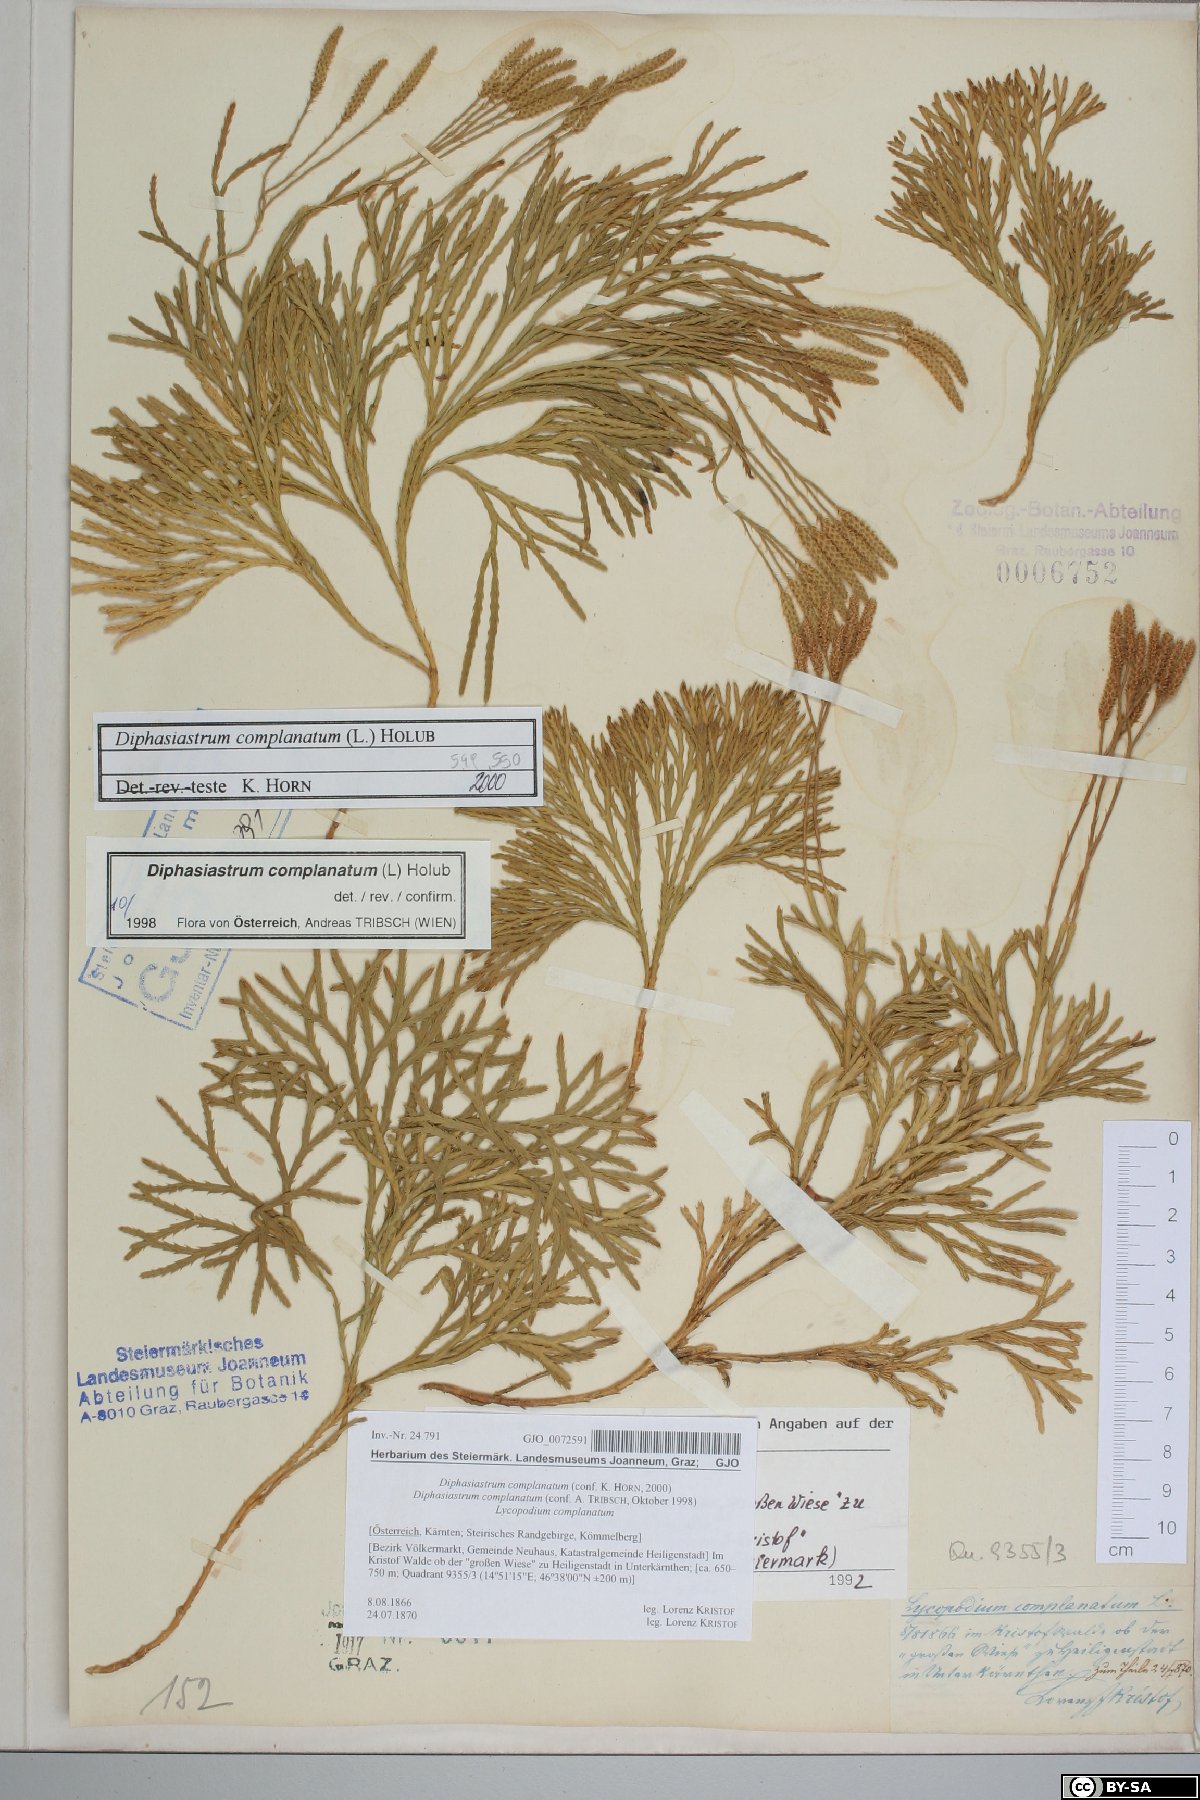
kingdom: Plantae
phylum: Tracheophyta
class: Lycopodiopsida
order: Lycopodiales
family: Lycopodiaceae
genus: Diphasiastrum
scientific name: Diphasiastrum complanatum
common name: Northern running-pine
